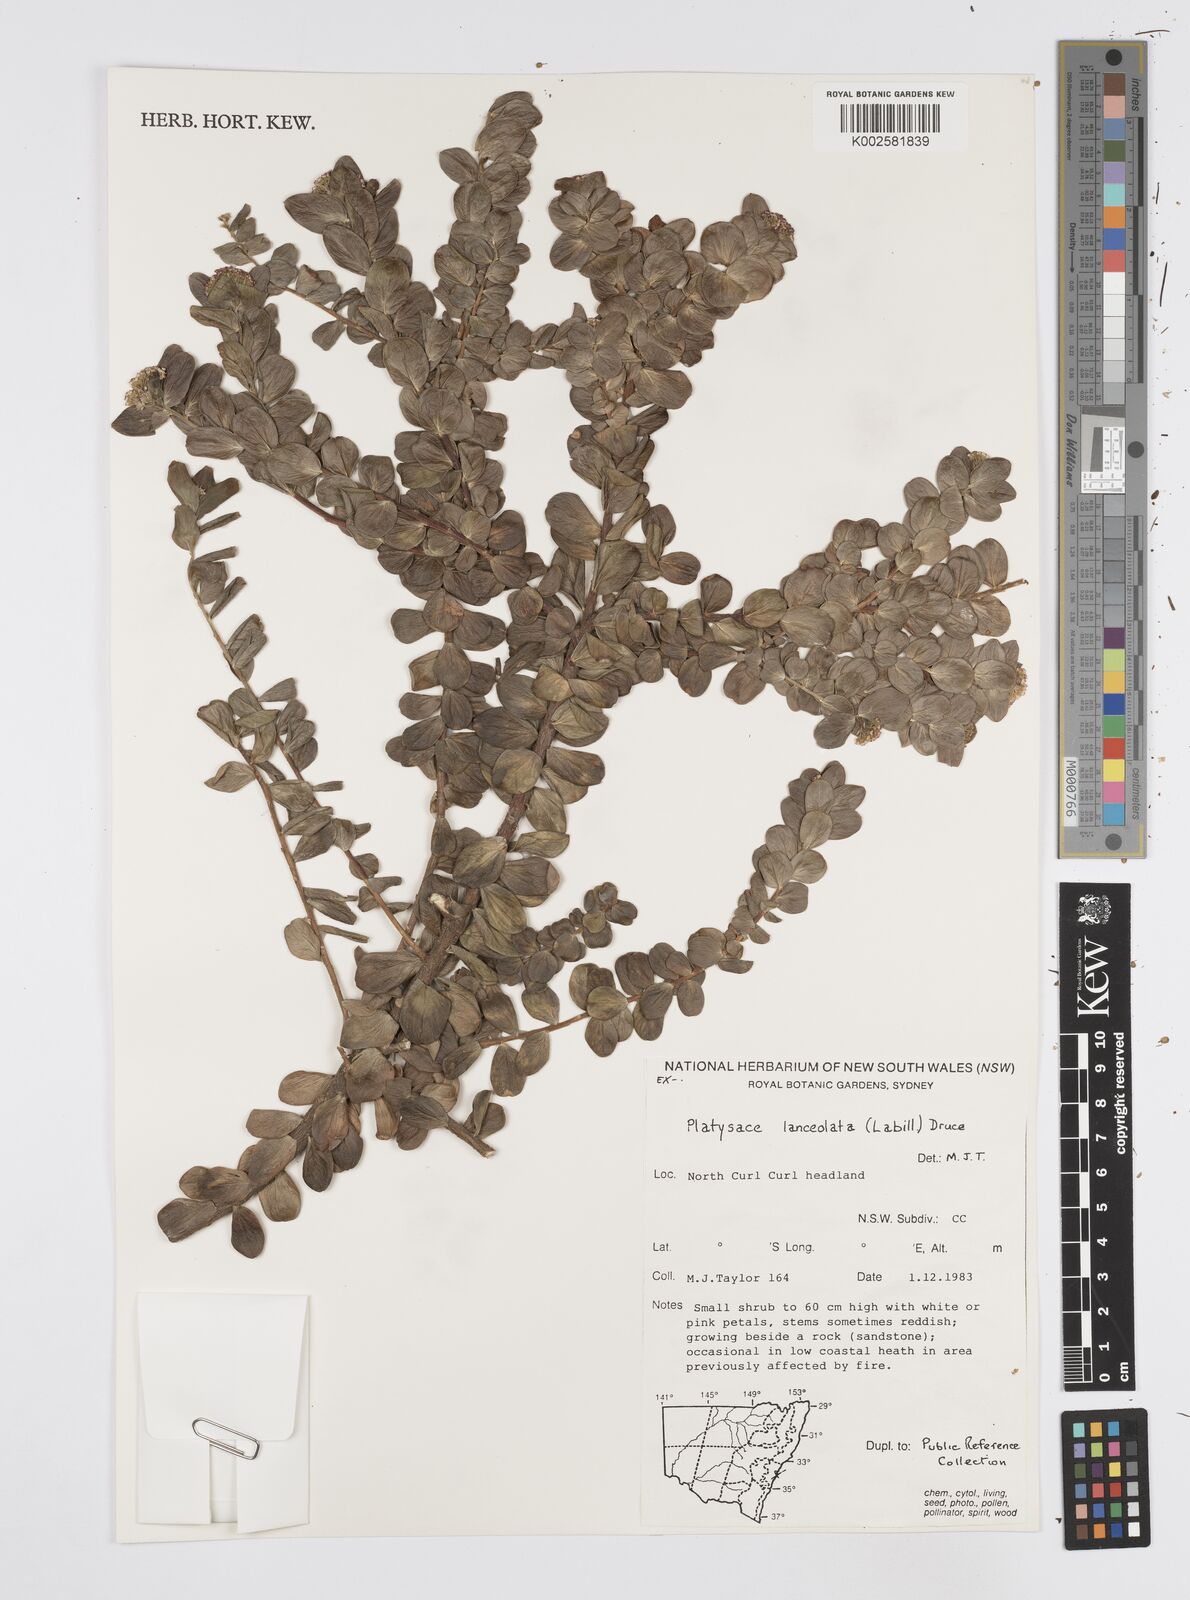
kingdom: Plantae
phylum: Tracheophyta
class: Magnoliopsida
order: Apiales
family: Apiaceae
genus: Platysace
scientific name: Platysace lanceolata
